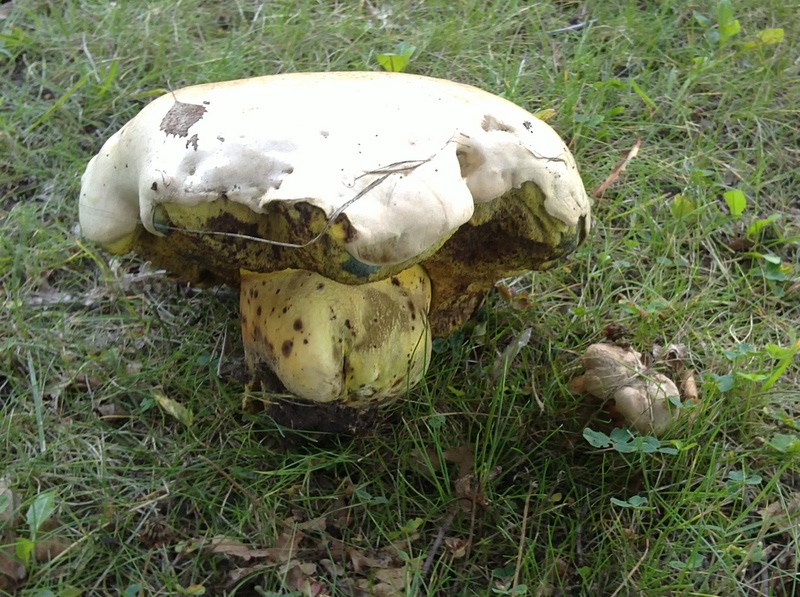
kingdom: Fungi
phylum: Basidiomycota
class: Agaricomycetes
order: Boletales
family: Boletaceae
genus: Caloboletus
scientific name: Caloboletus radicans
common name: rod-rørhat
